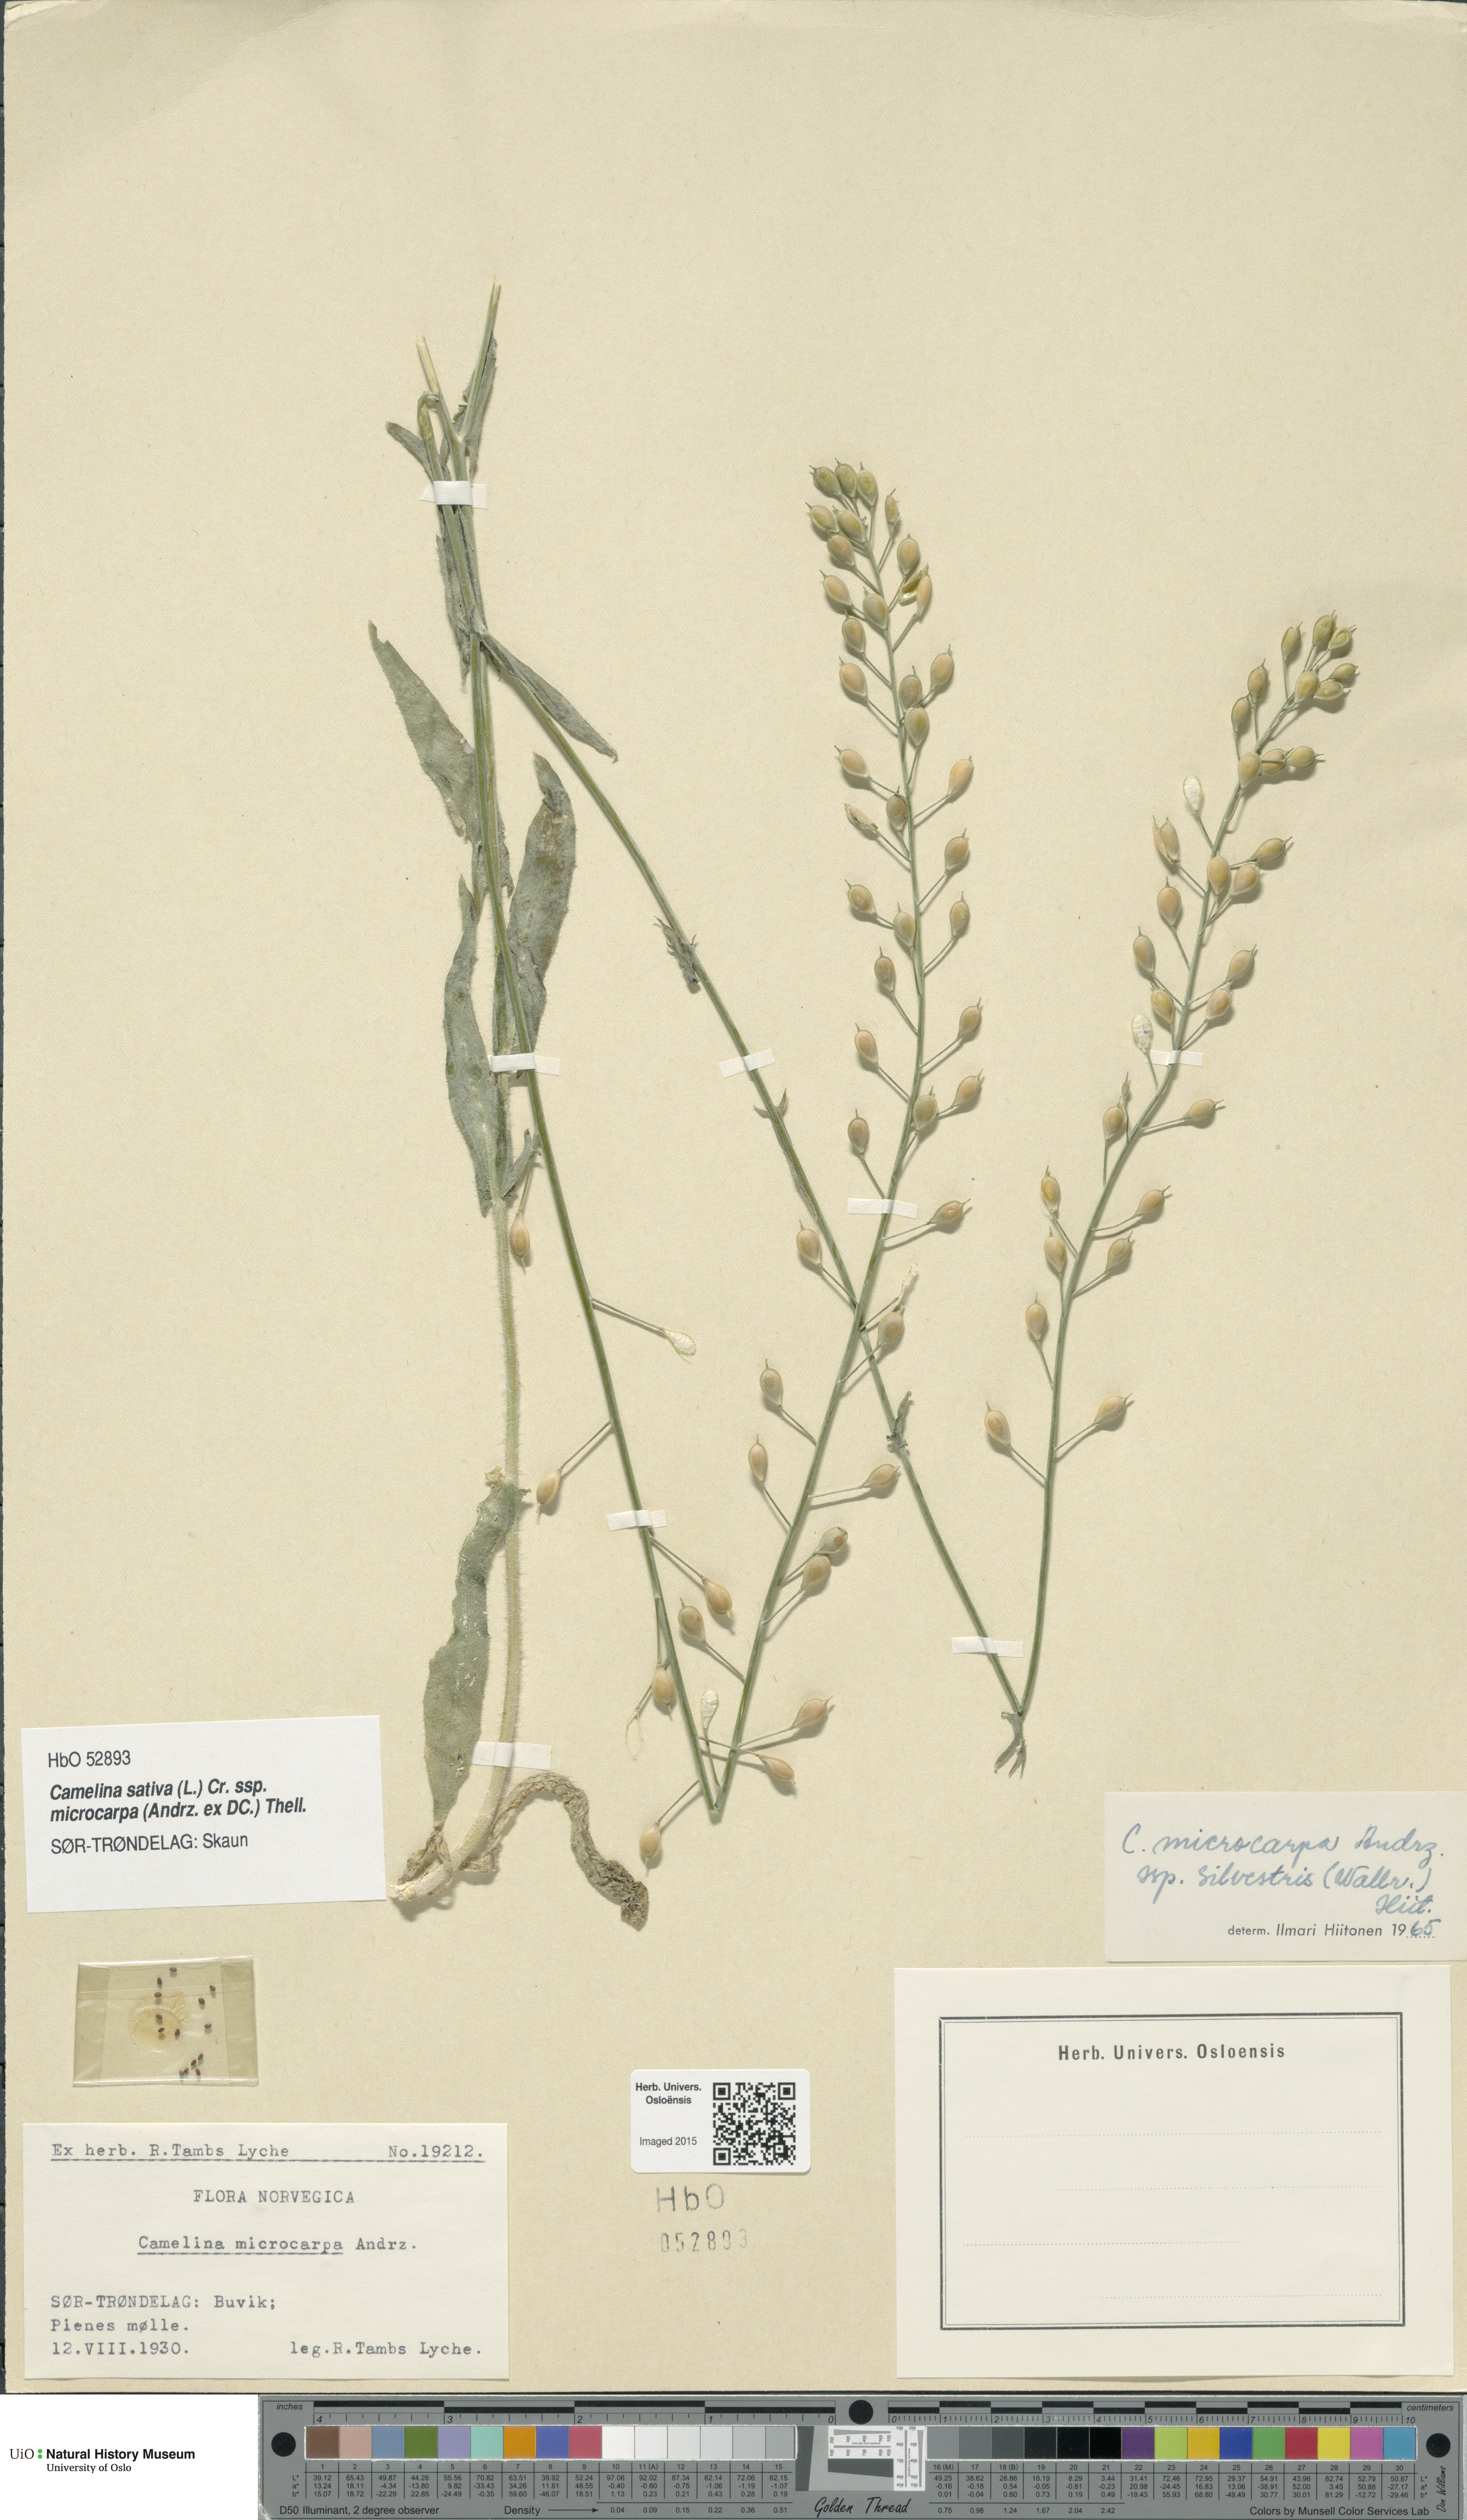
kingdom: Plantae
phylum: Tracheophyta
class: Magnoliopsida
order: Brassicales
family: Brassicaceae
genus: Camelina
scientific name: Camelina sativa
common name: Gold-of-pleasure
